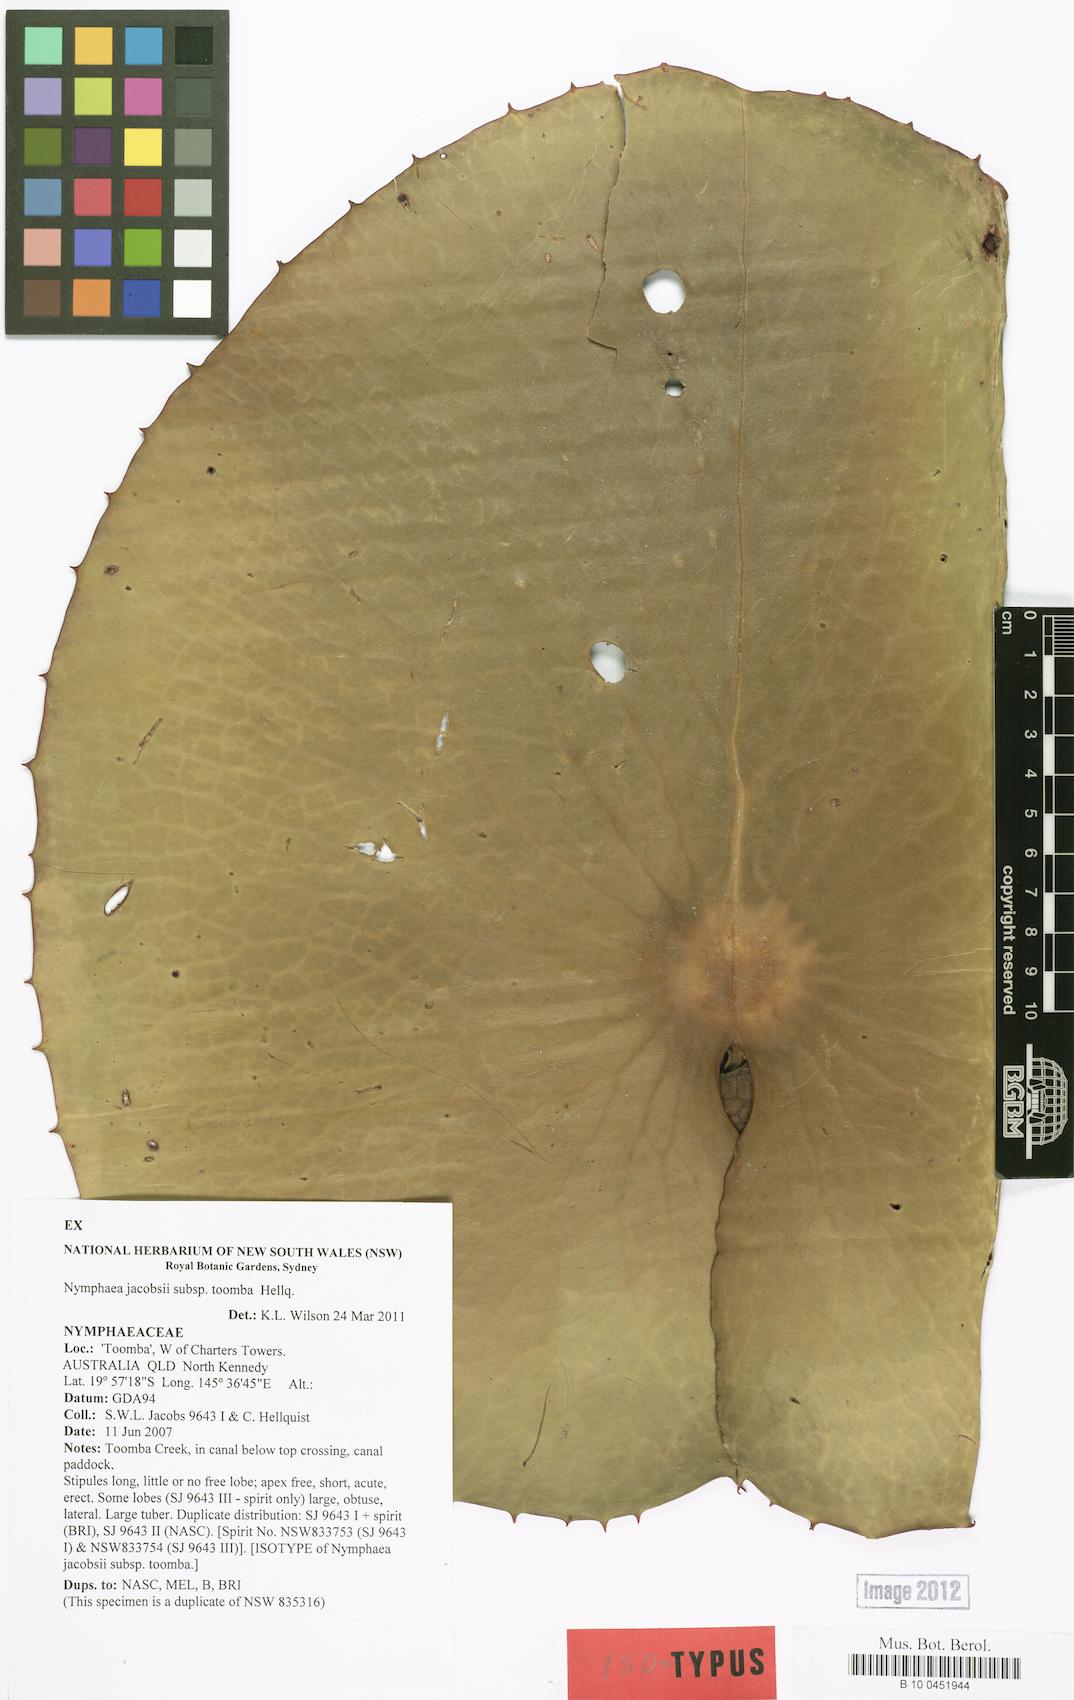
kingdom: Plantae
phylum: Tracheophyta
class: Magnoliopsida
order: Nymphaeales
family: Nymphaeaceae
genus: Nymphaea
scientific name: Nymphaea jacobsii
